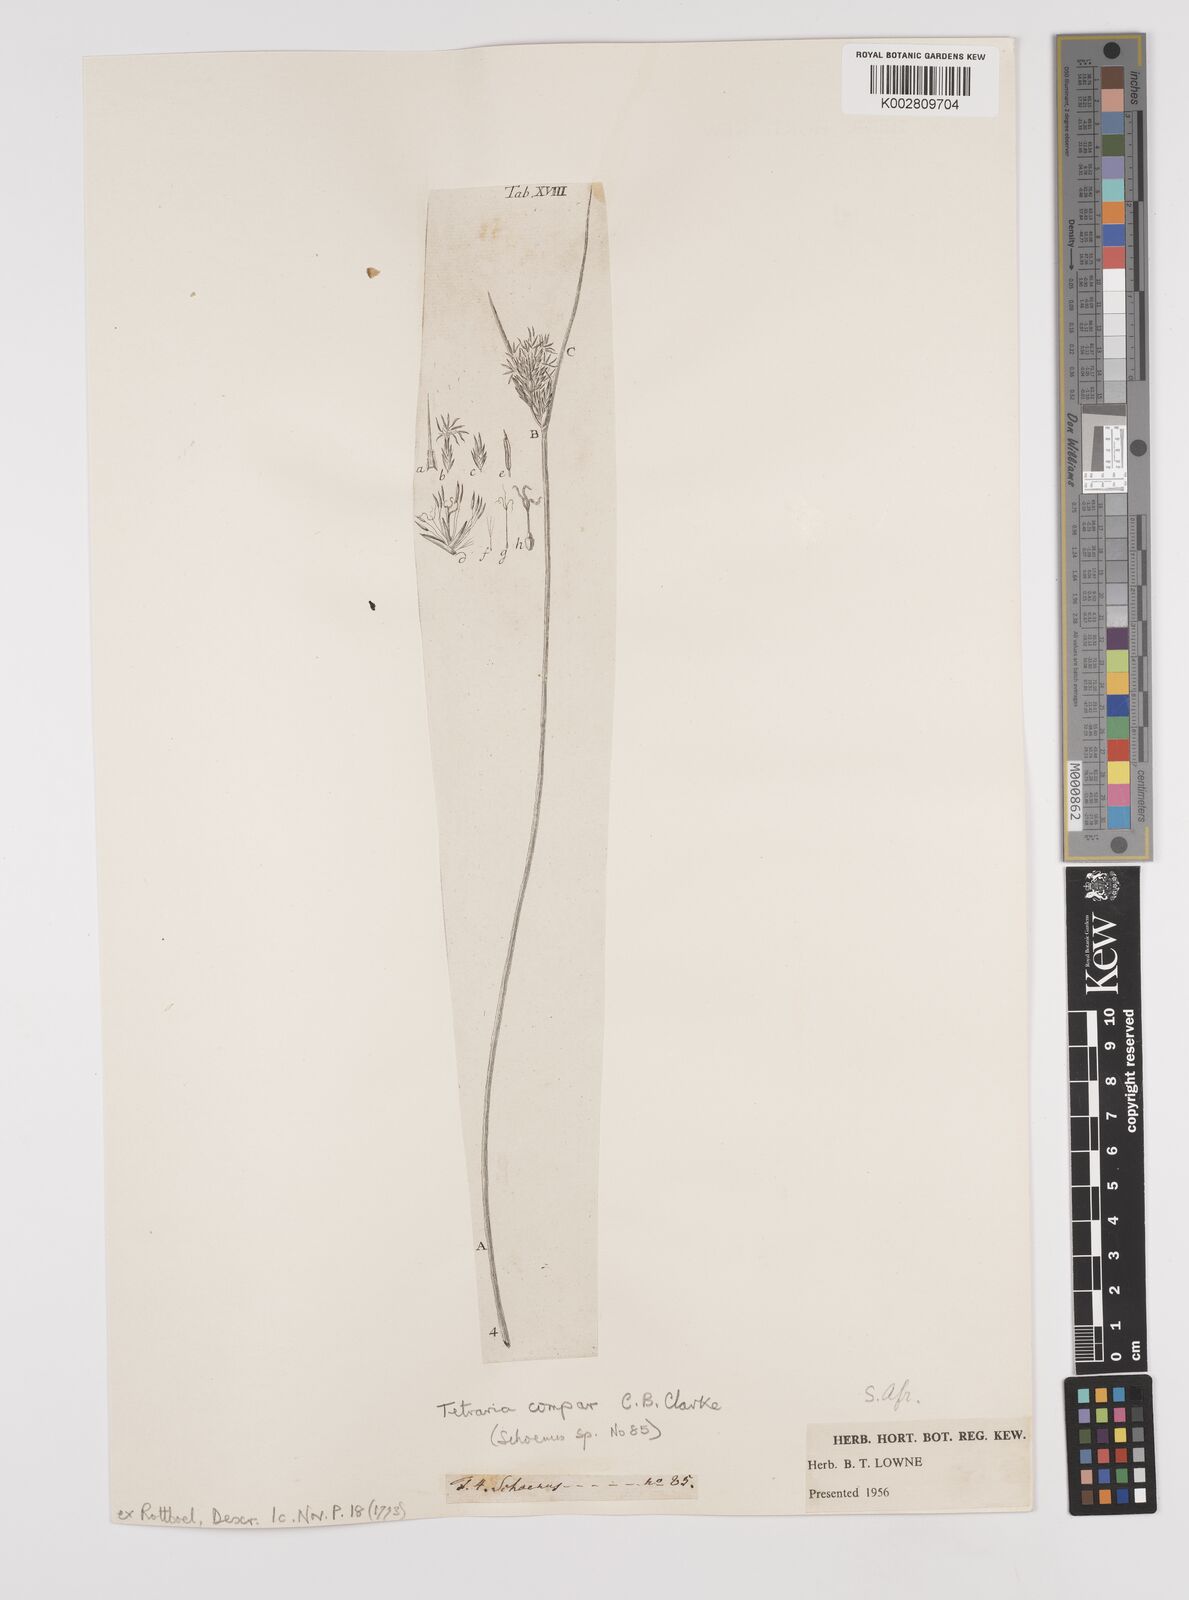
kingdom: Plantae
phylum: Tracheophyta
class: Liliopsida
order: Poales
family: Cyperaceae
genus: Schoenus
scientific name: Schoenus compar
